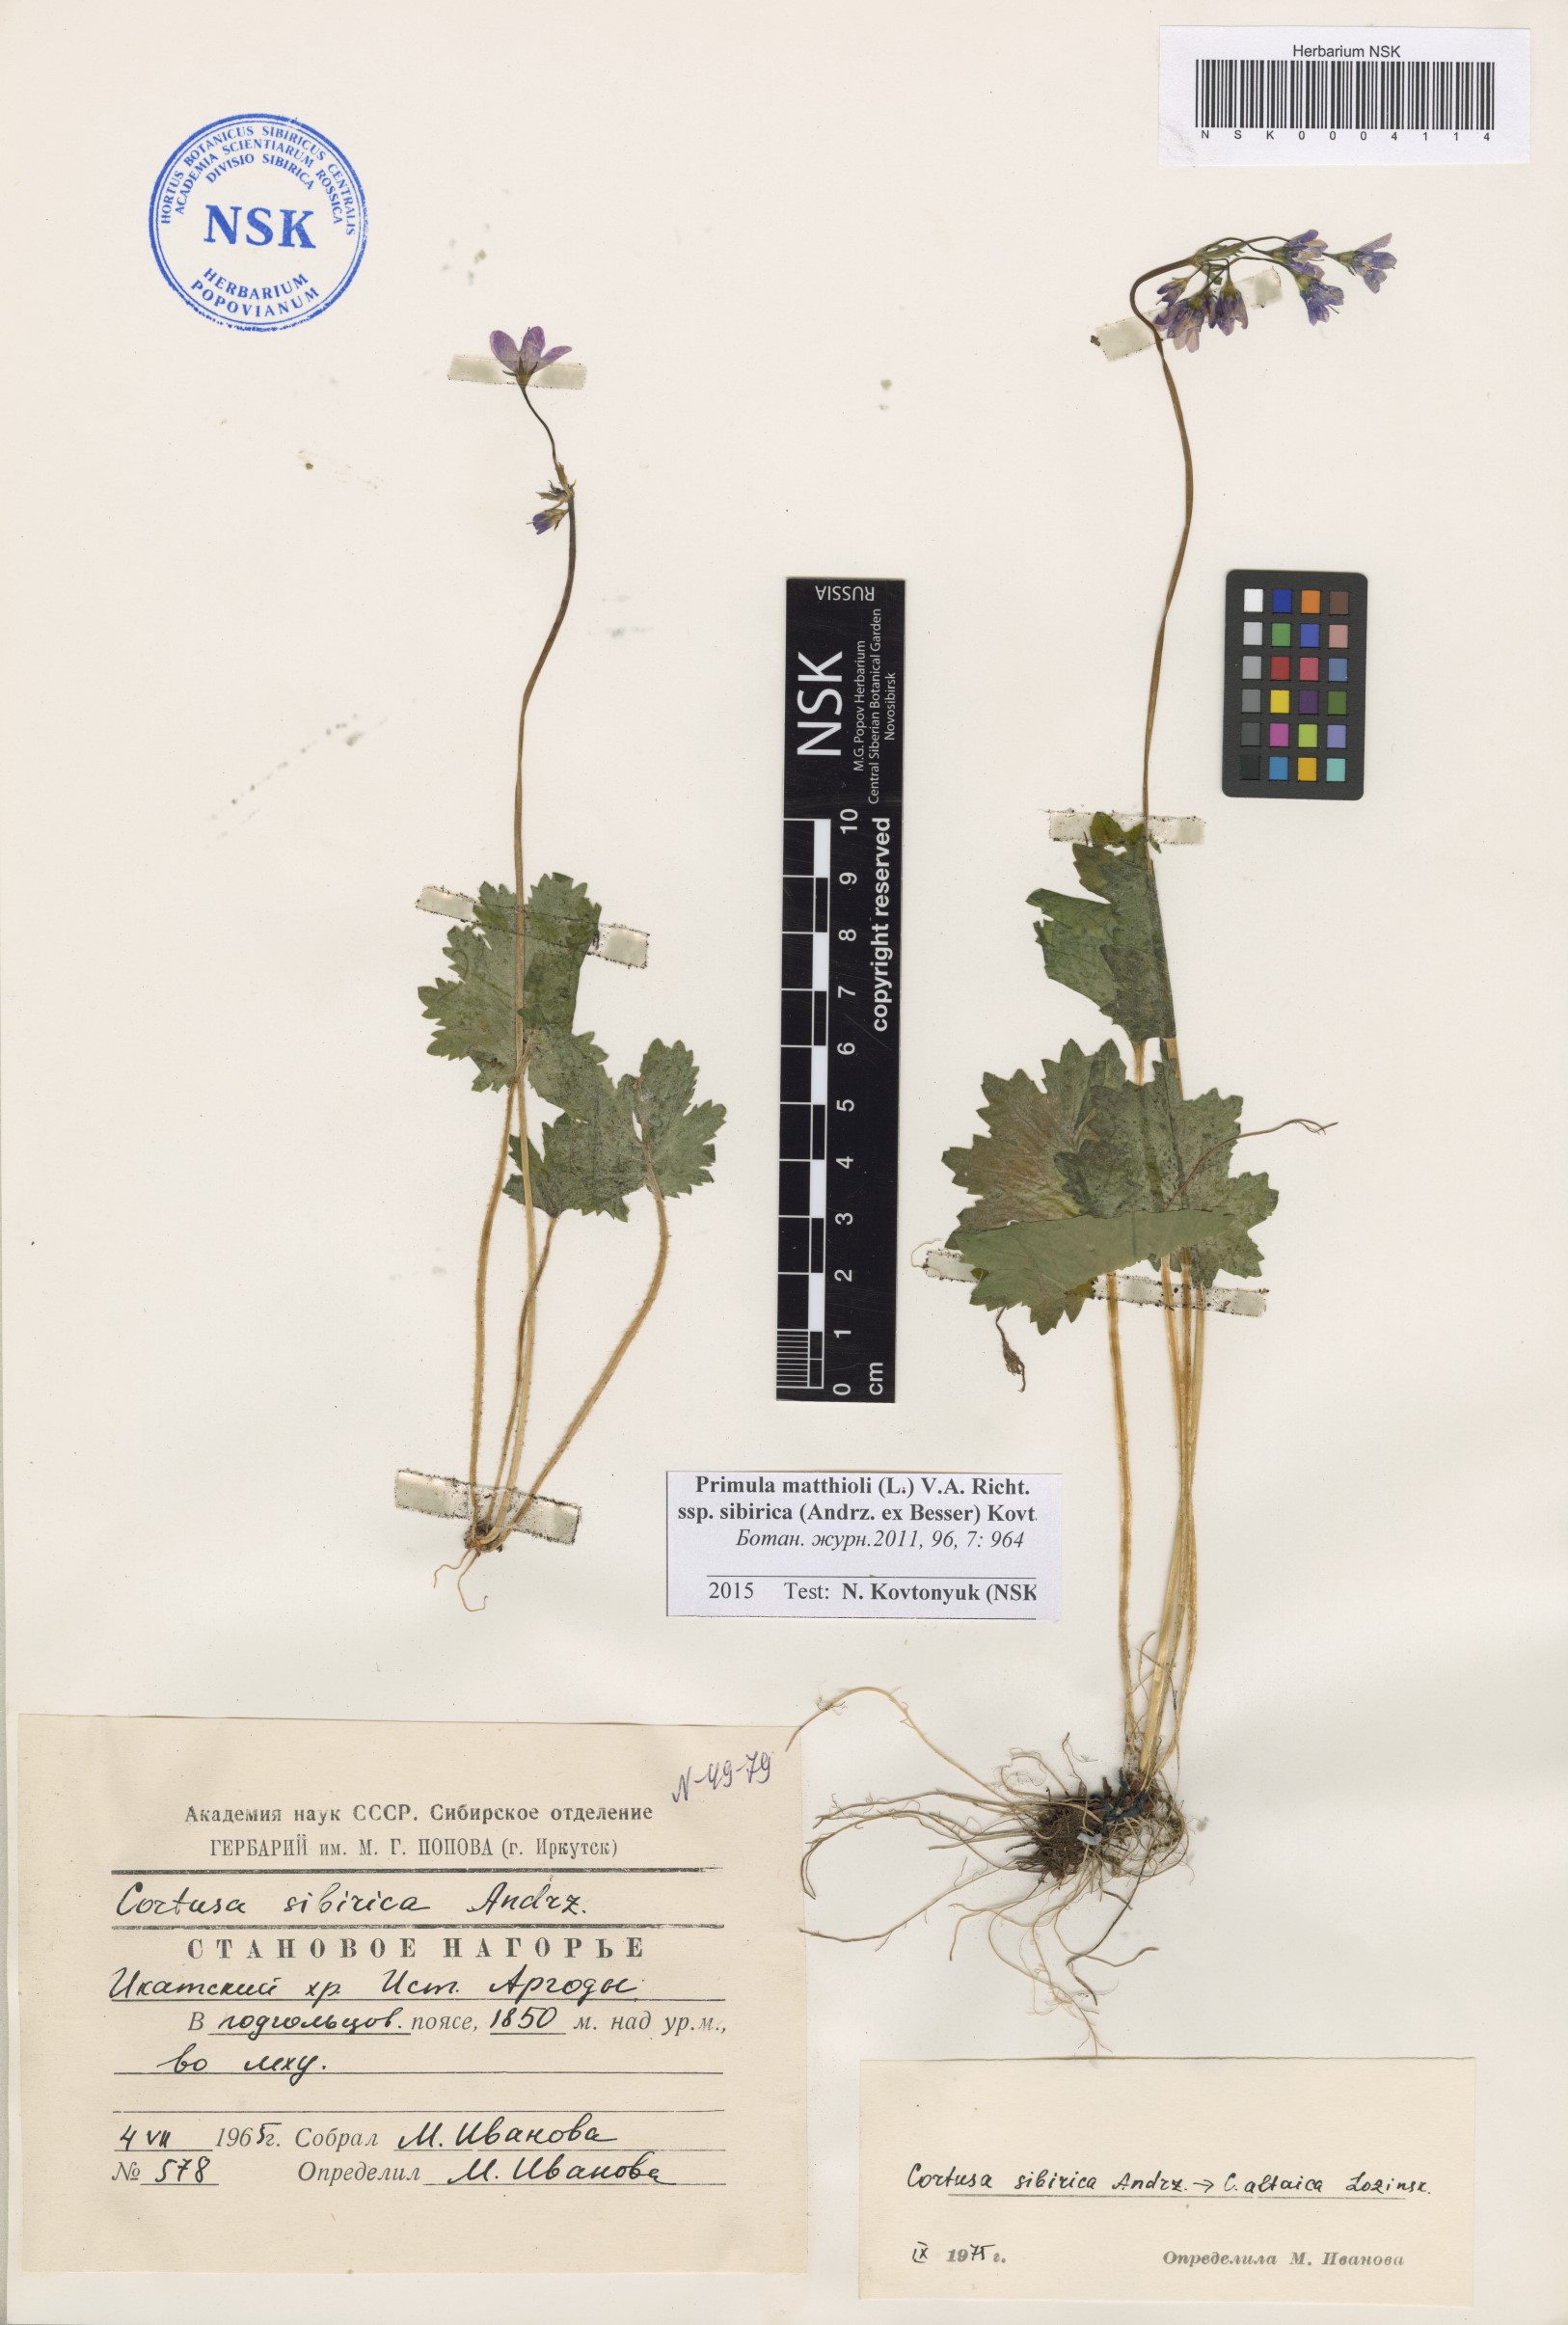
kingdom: Plantae
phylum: Tracheophyta
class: Magnoliopsida
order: Ericales
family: Primulaceae
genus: Primula
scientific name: Primula matthioli
